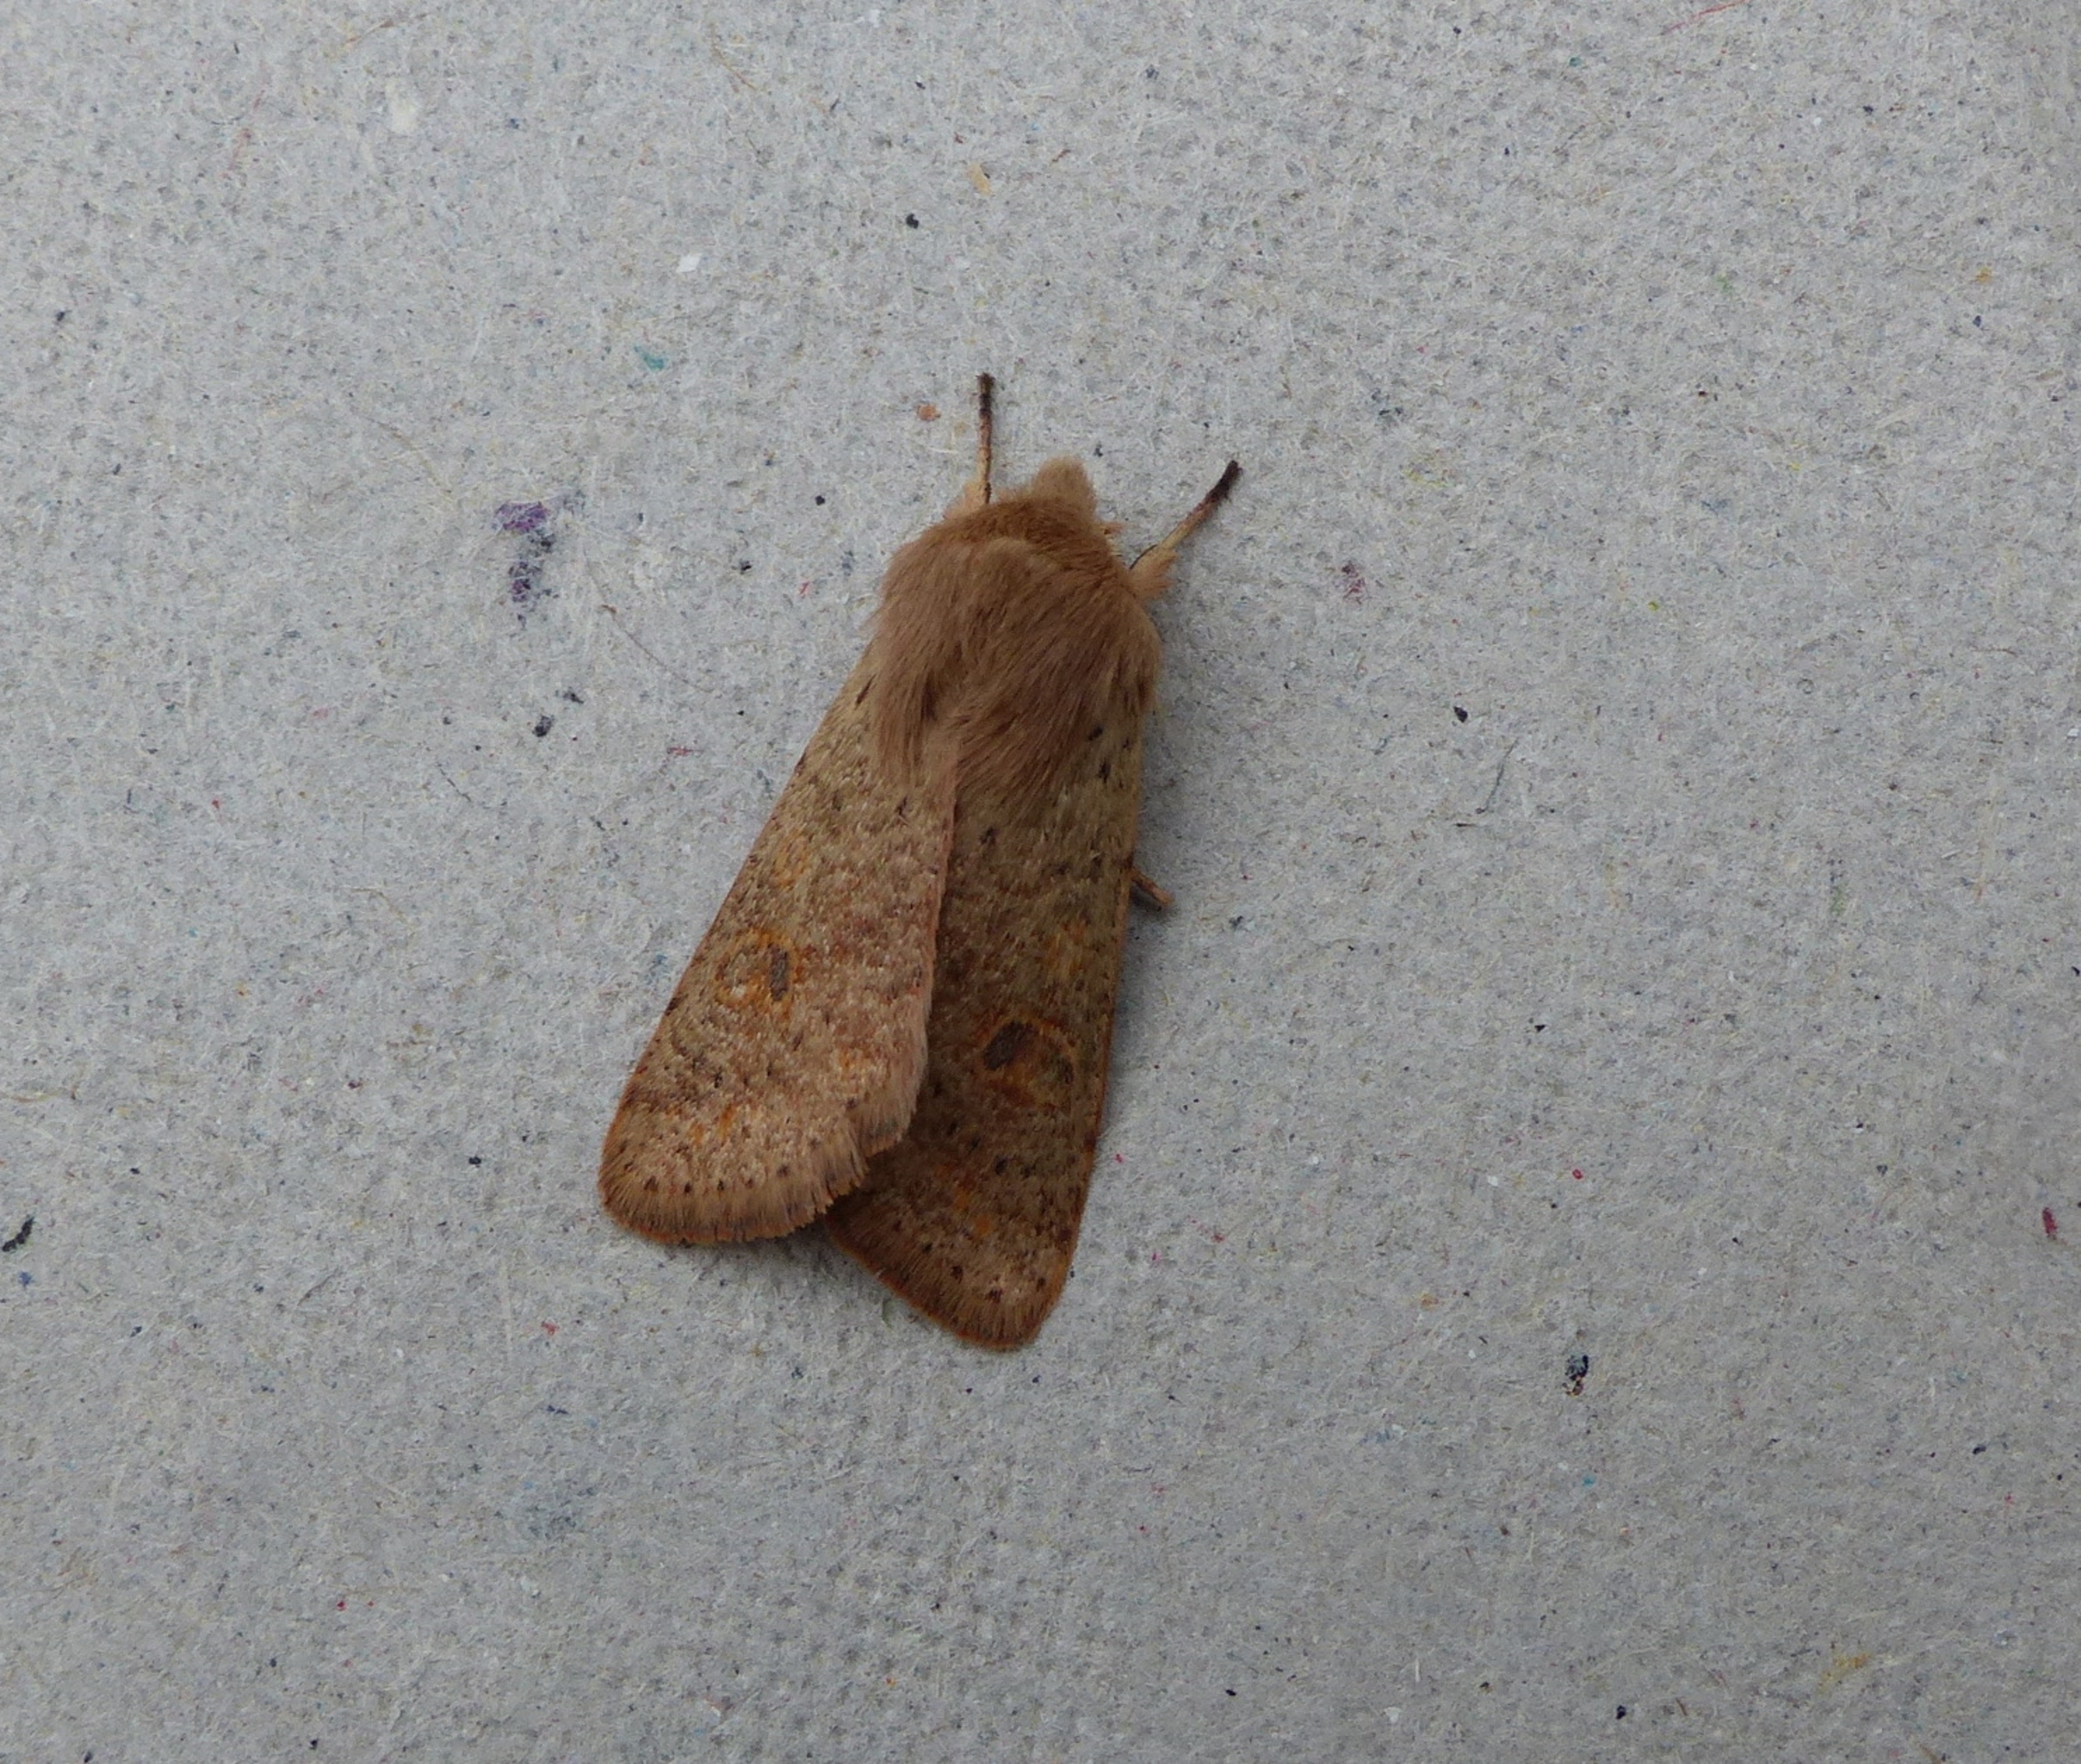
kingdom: Animalia
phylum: Arthropoda
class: Insecta
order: Lepidoptera
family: Noctuidae
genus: Orthosia
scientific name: Orthosia cruda
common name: Lille forårsugle
